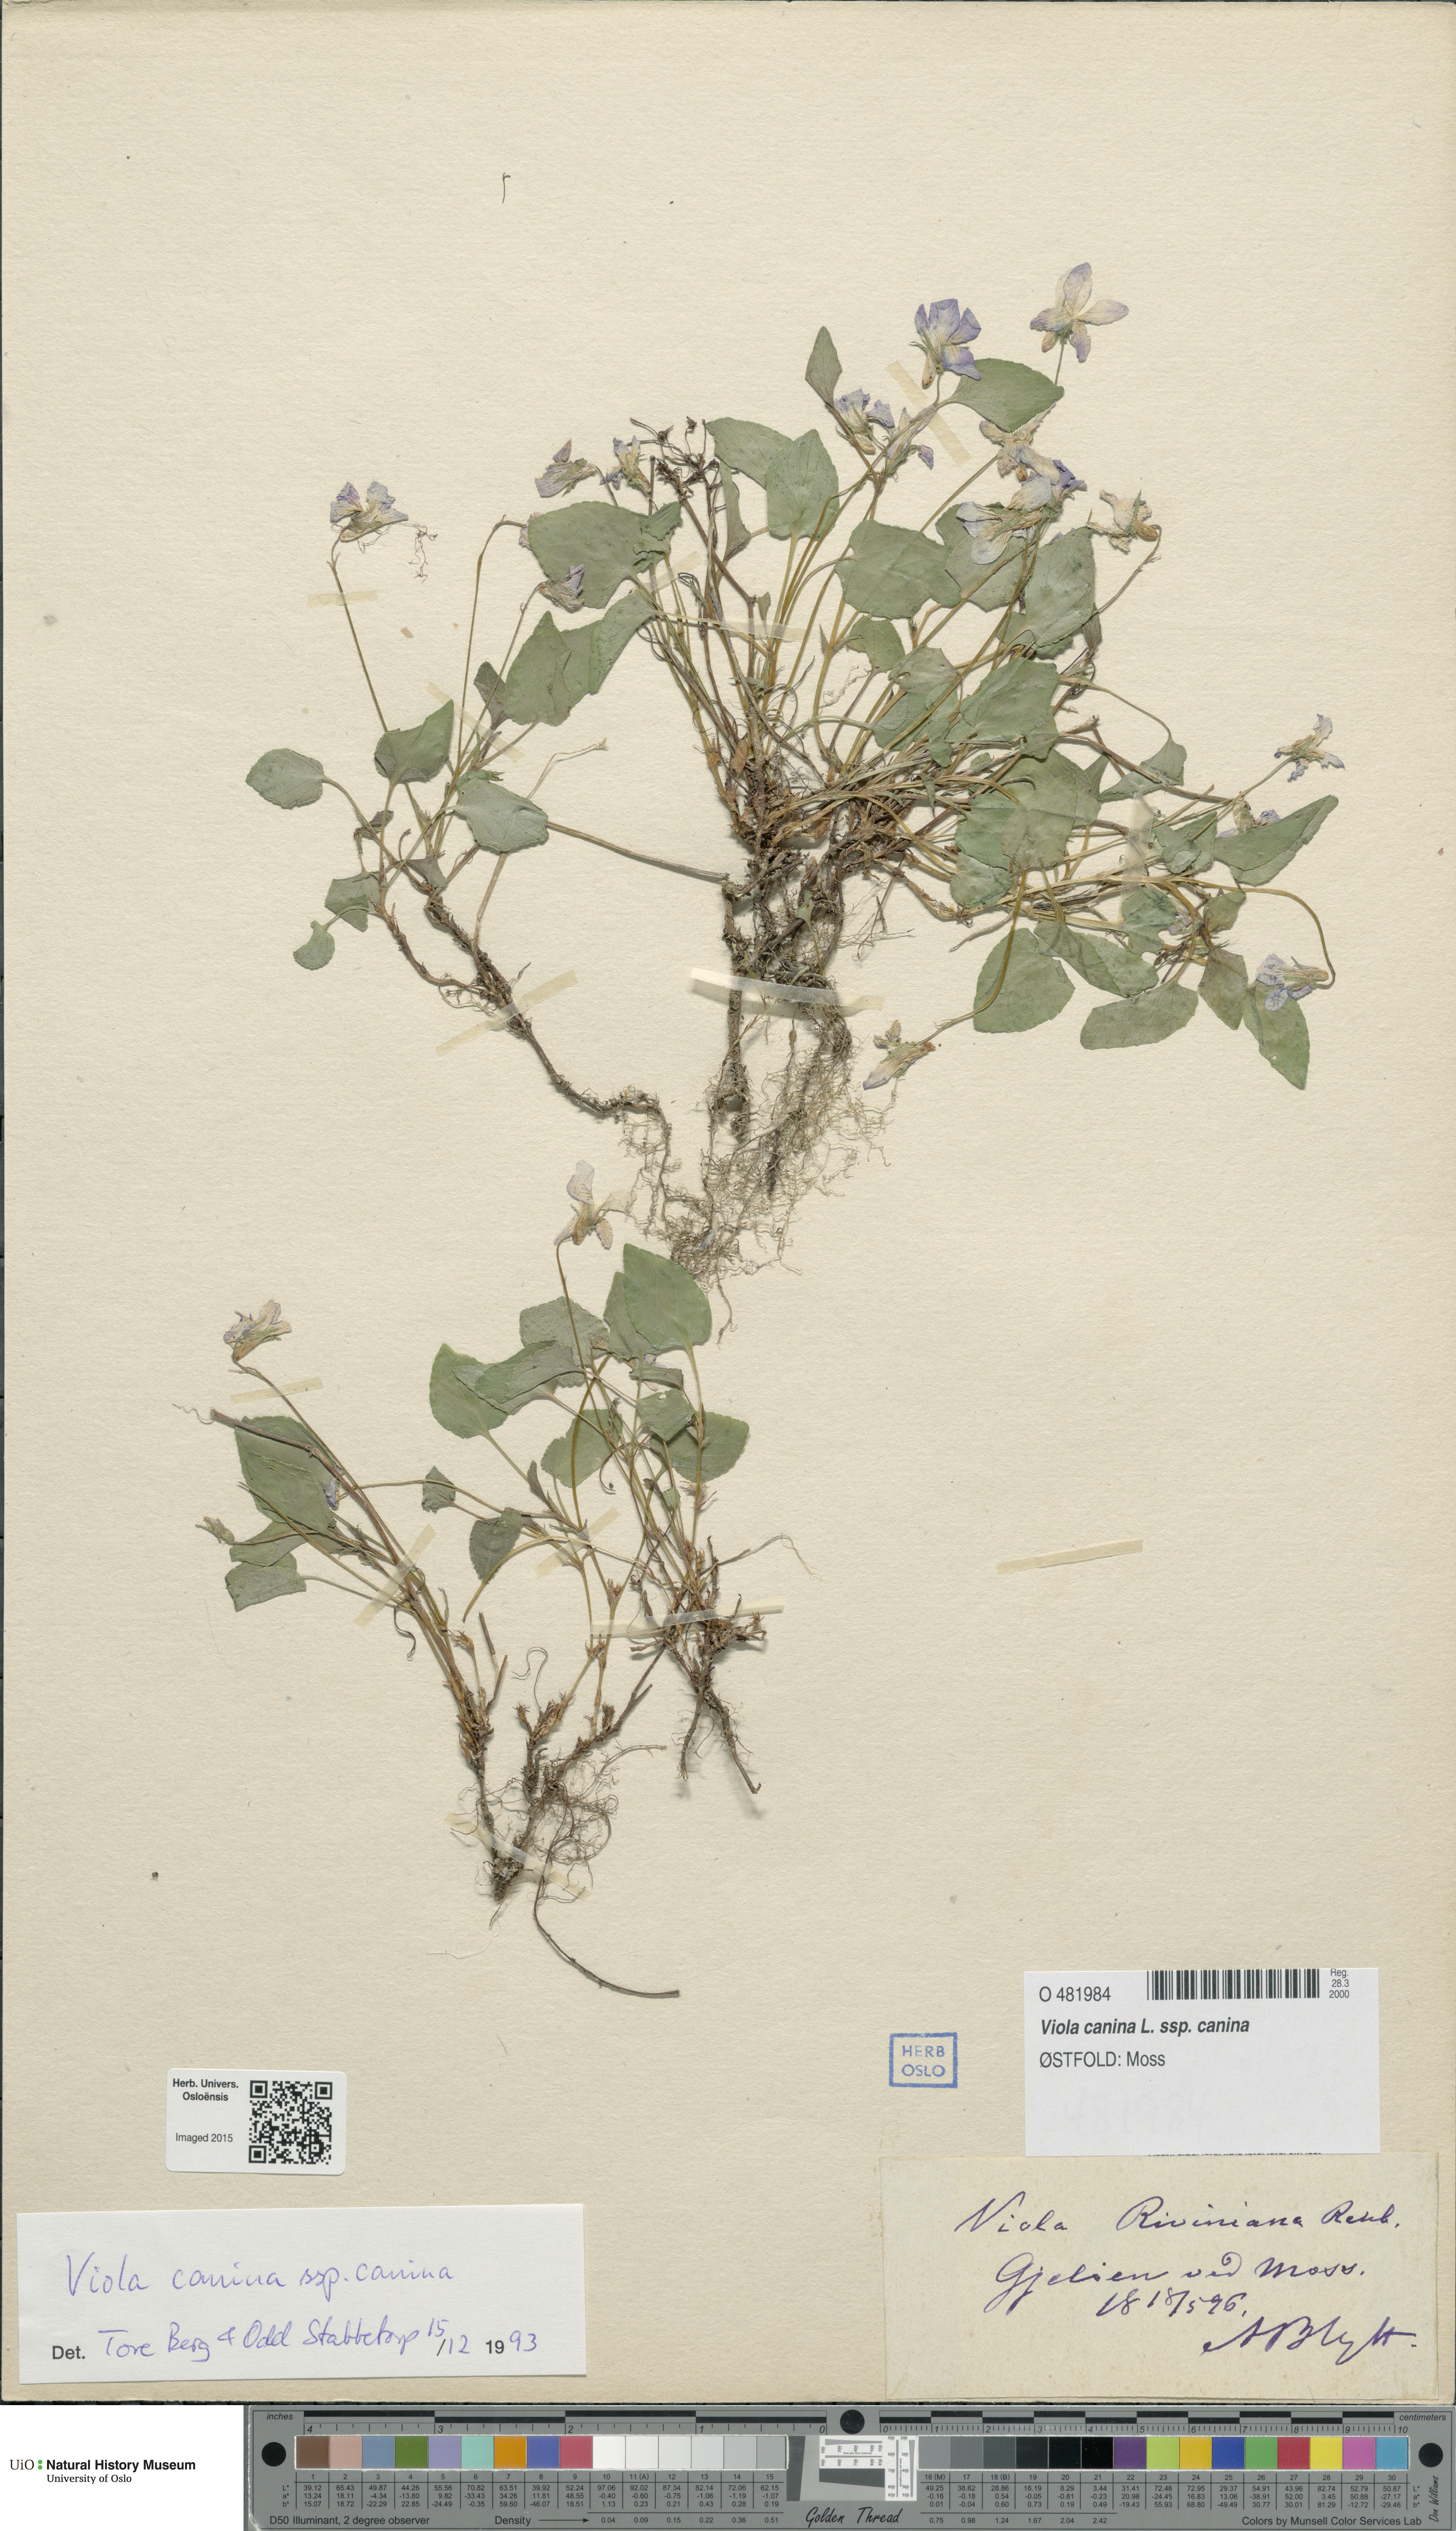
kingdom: Plantae
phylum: Tracheophyta
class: Magnoliopsida
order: Malpighiales
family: Violaceae
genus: Viola
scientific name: Viola canina
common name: Heath dog-violet
